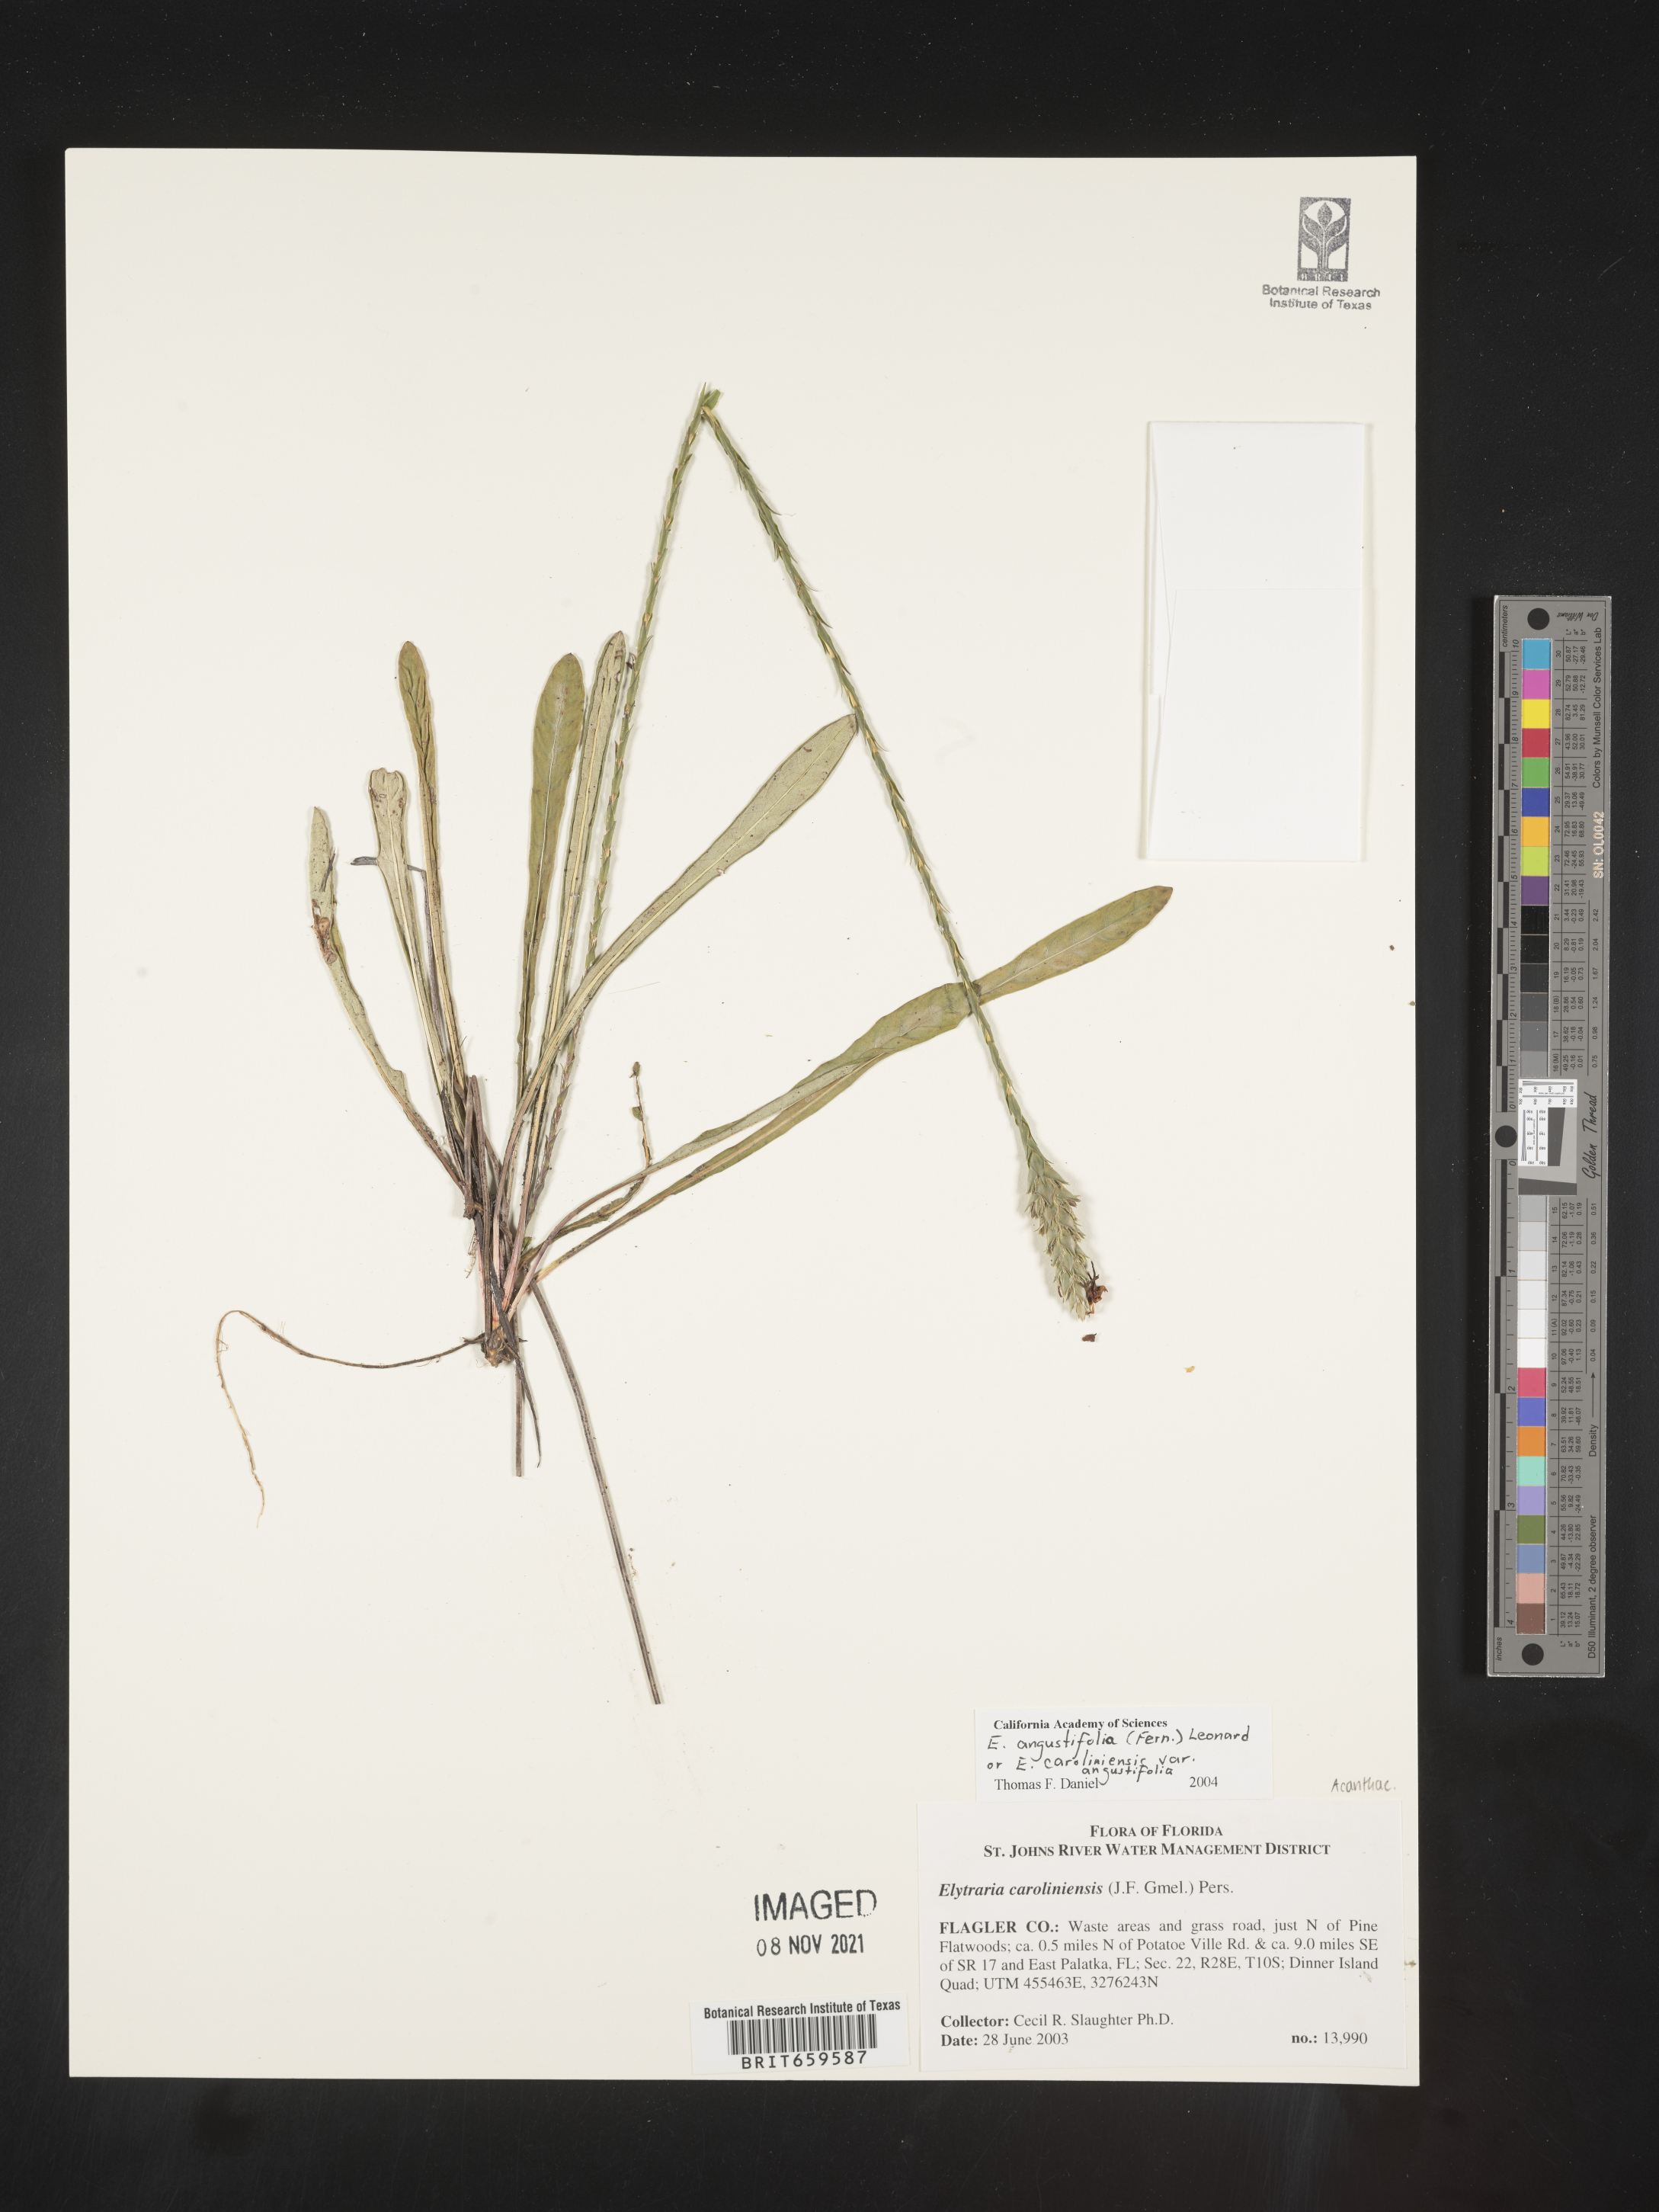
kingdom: Plantae
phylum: Tracheophyta
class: Magnoliopsida
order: Lamiales
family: Acanthaceae
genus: Elytraria
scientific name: Elytraria imbricata
